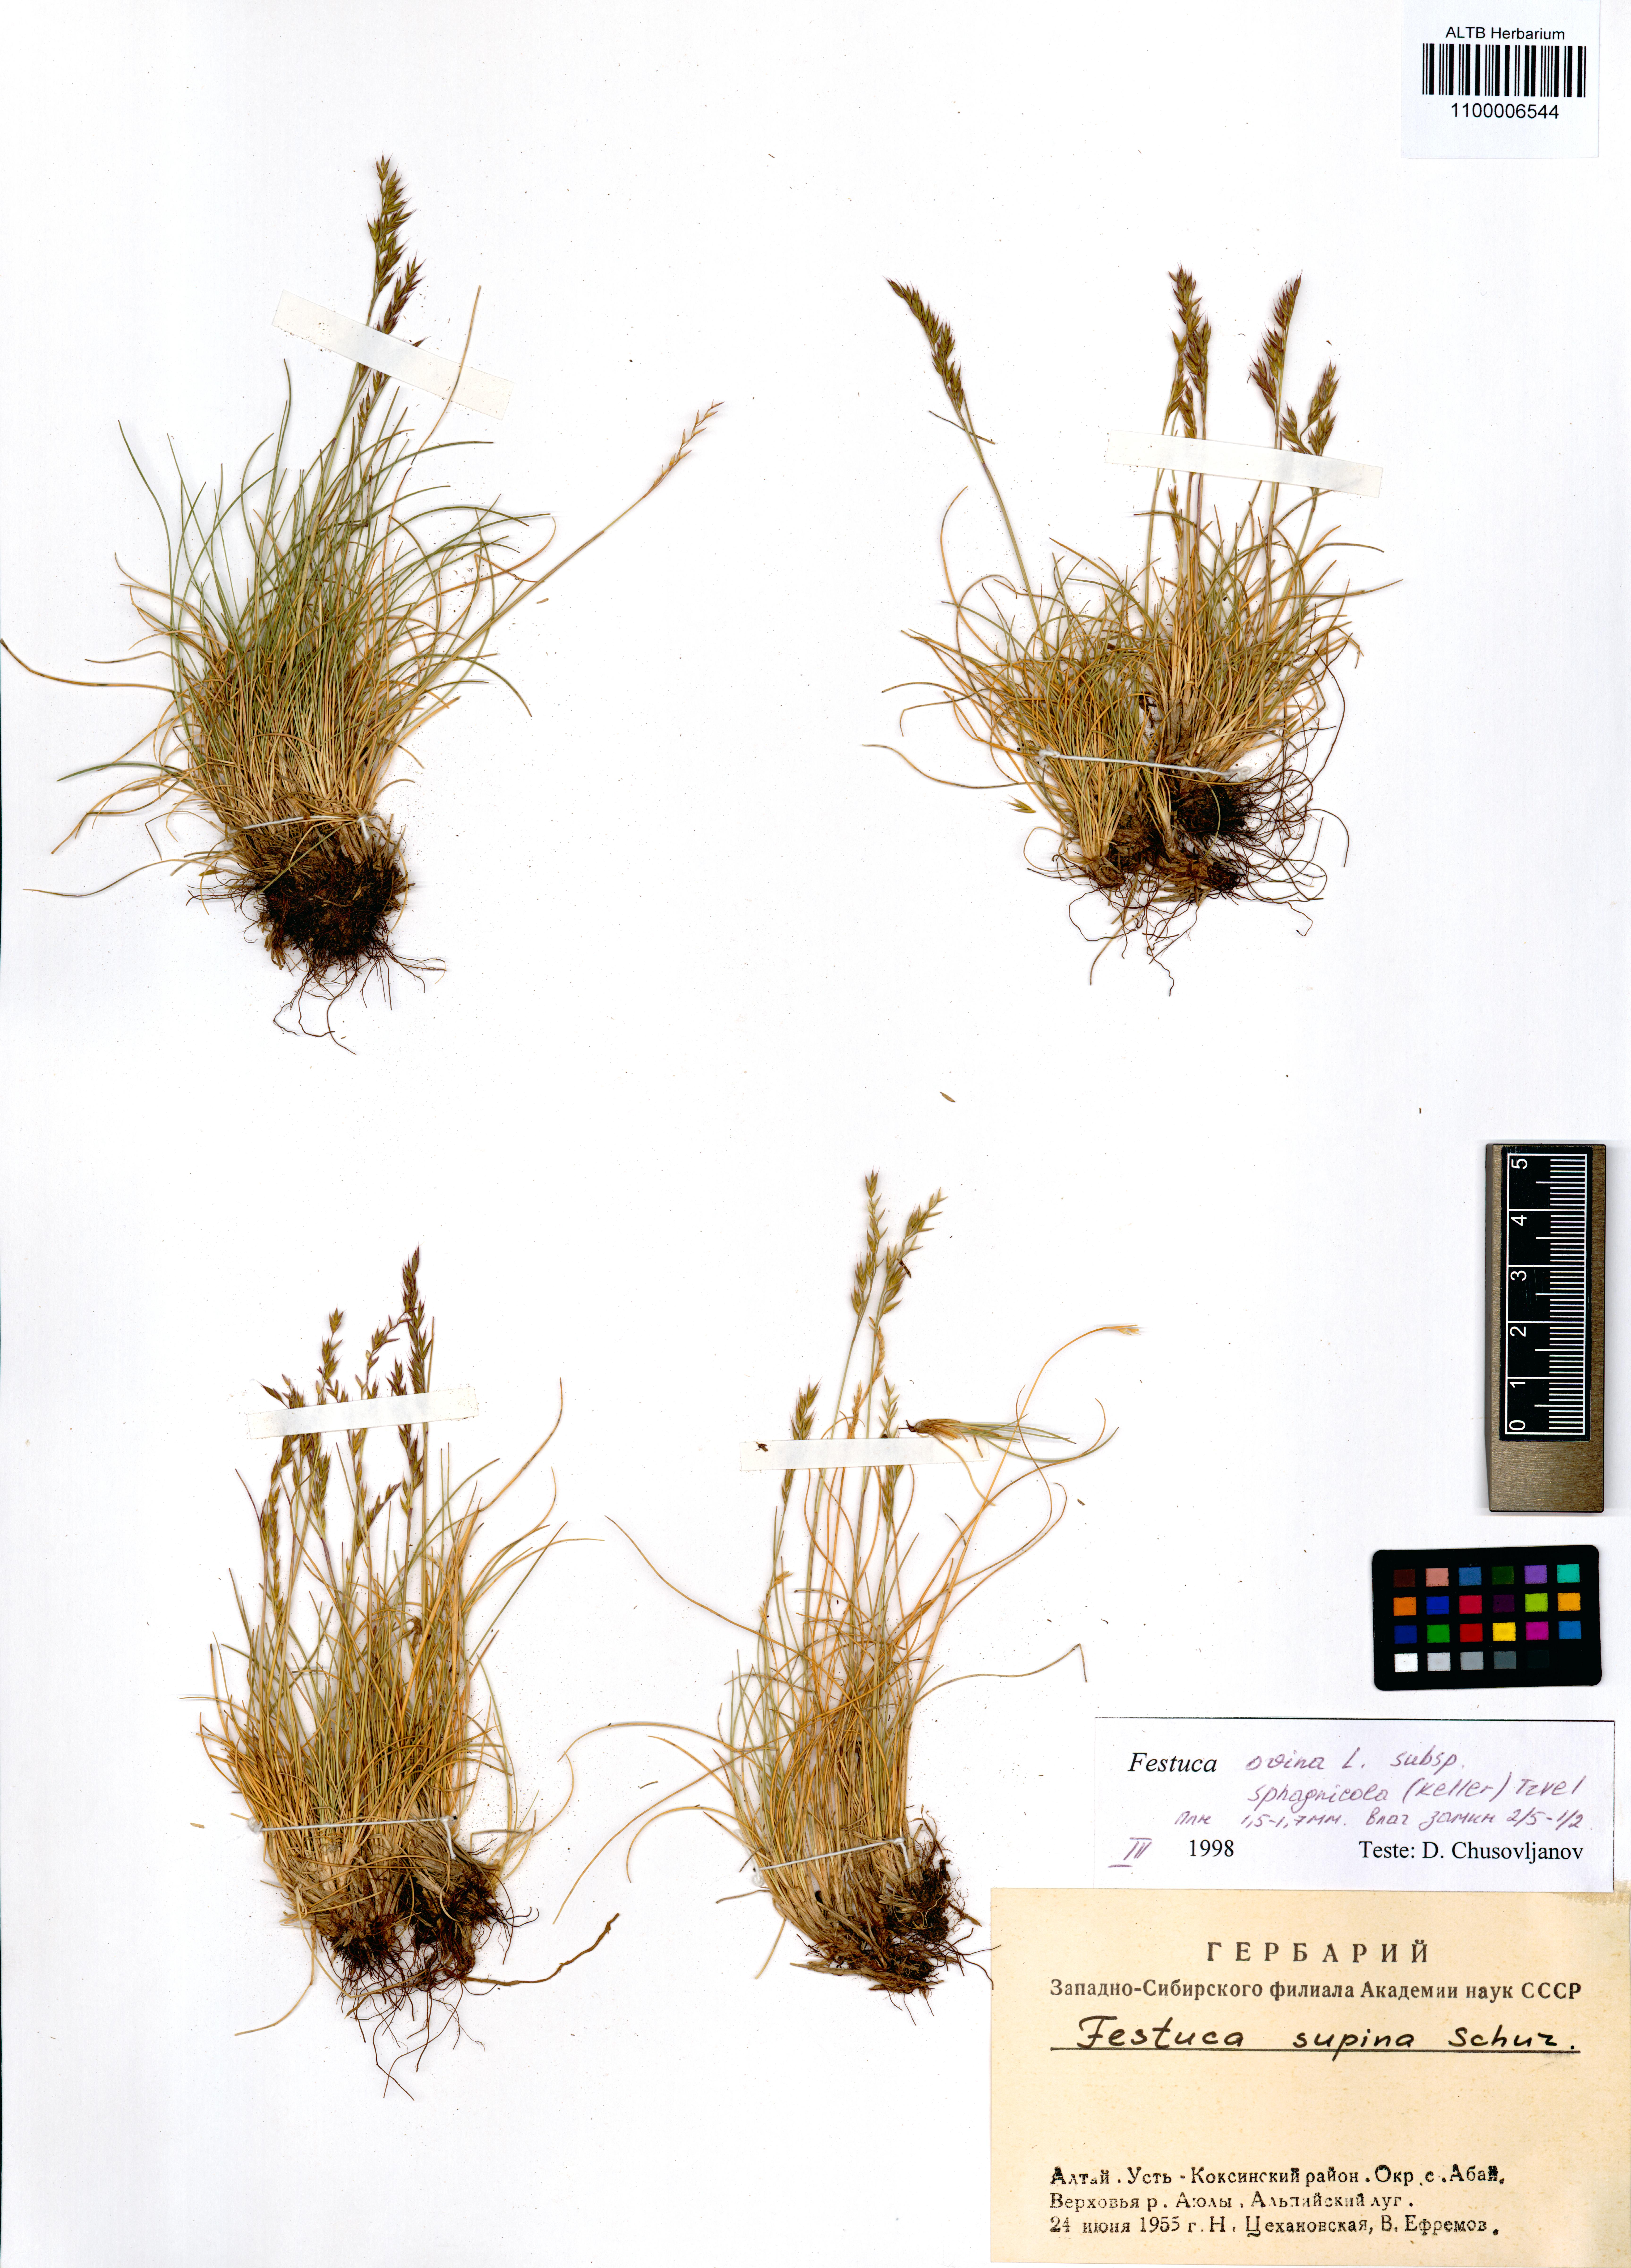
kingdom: Plantae
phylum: Tracheophyta
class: Liliopsida
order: Poales
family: Poaceae
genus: Festuca
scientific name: Festuca
